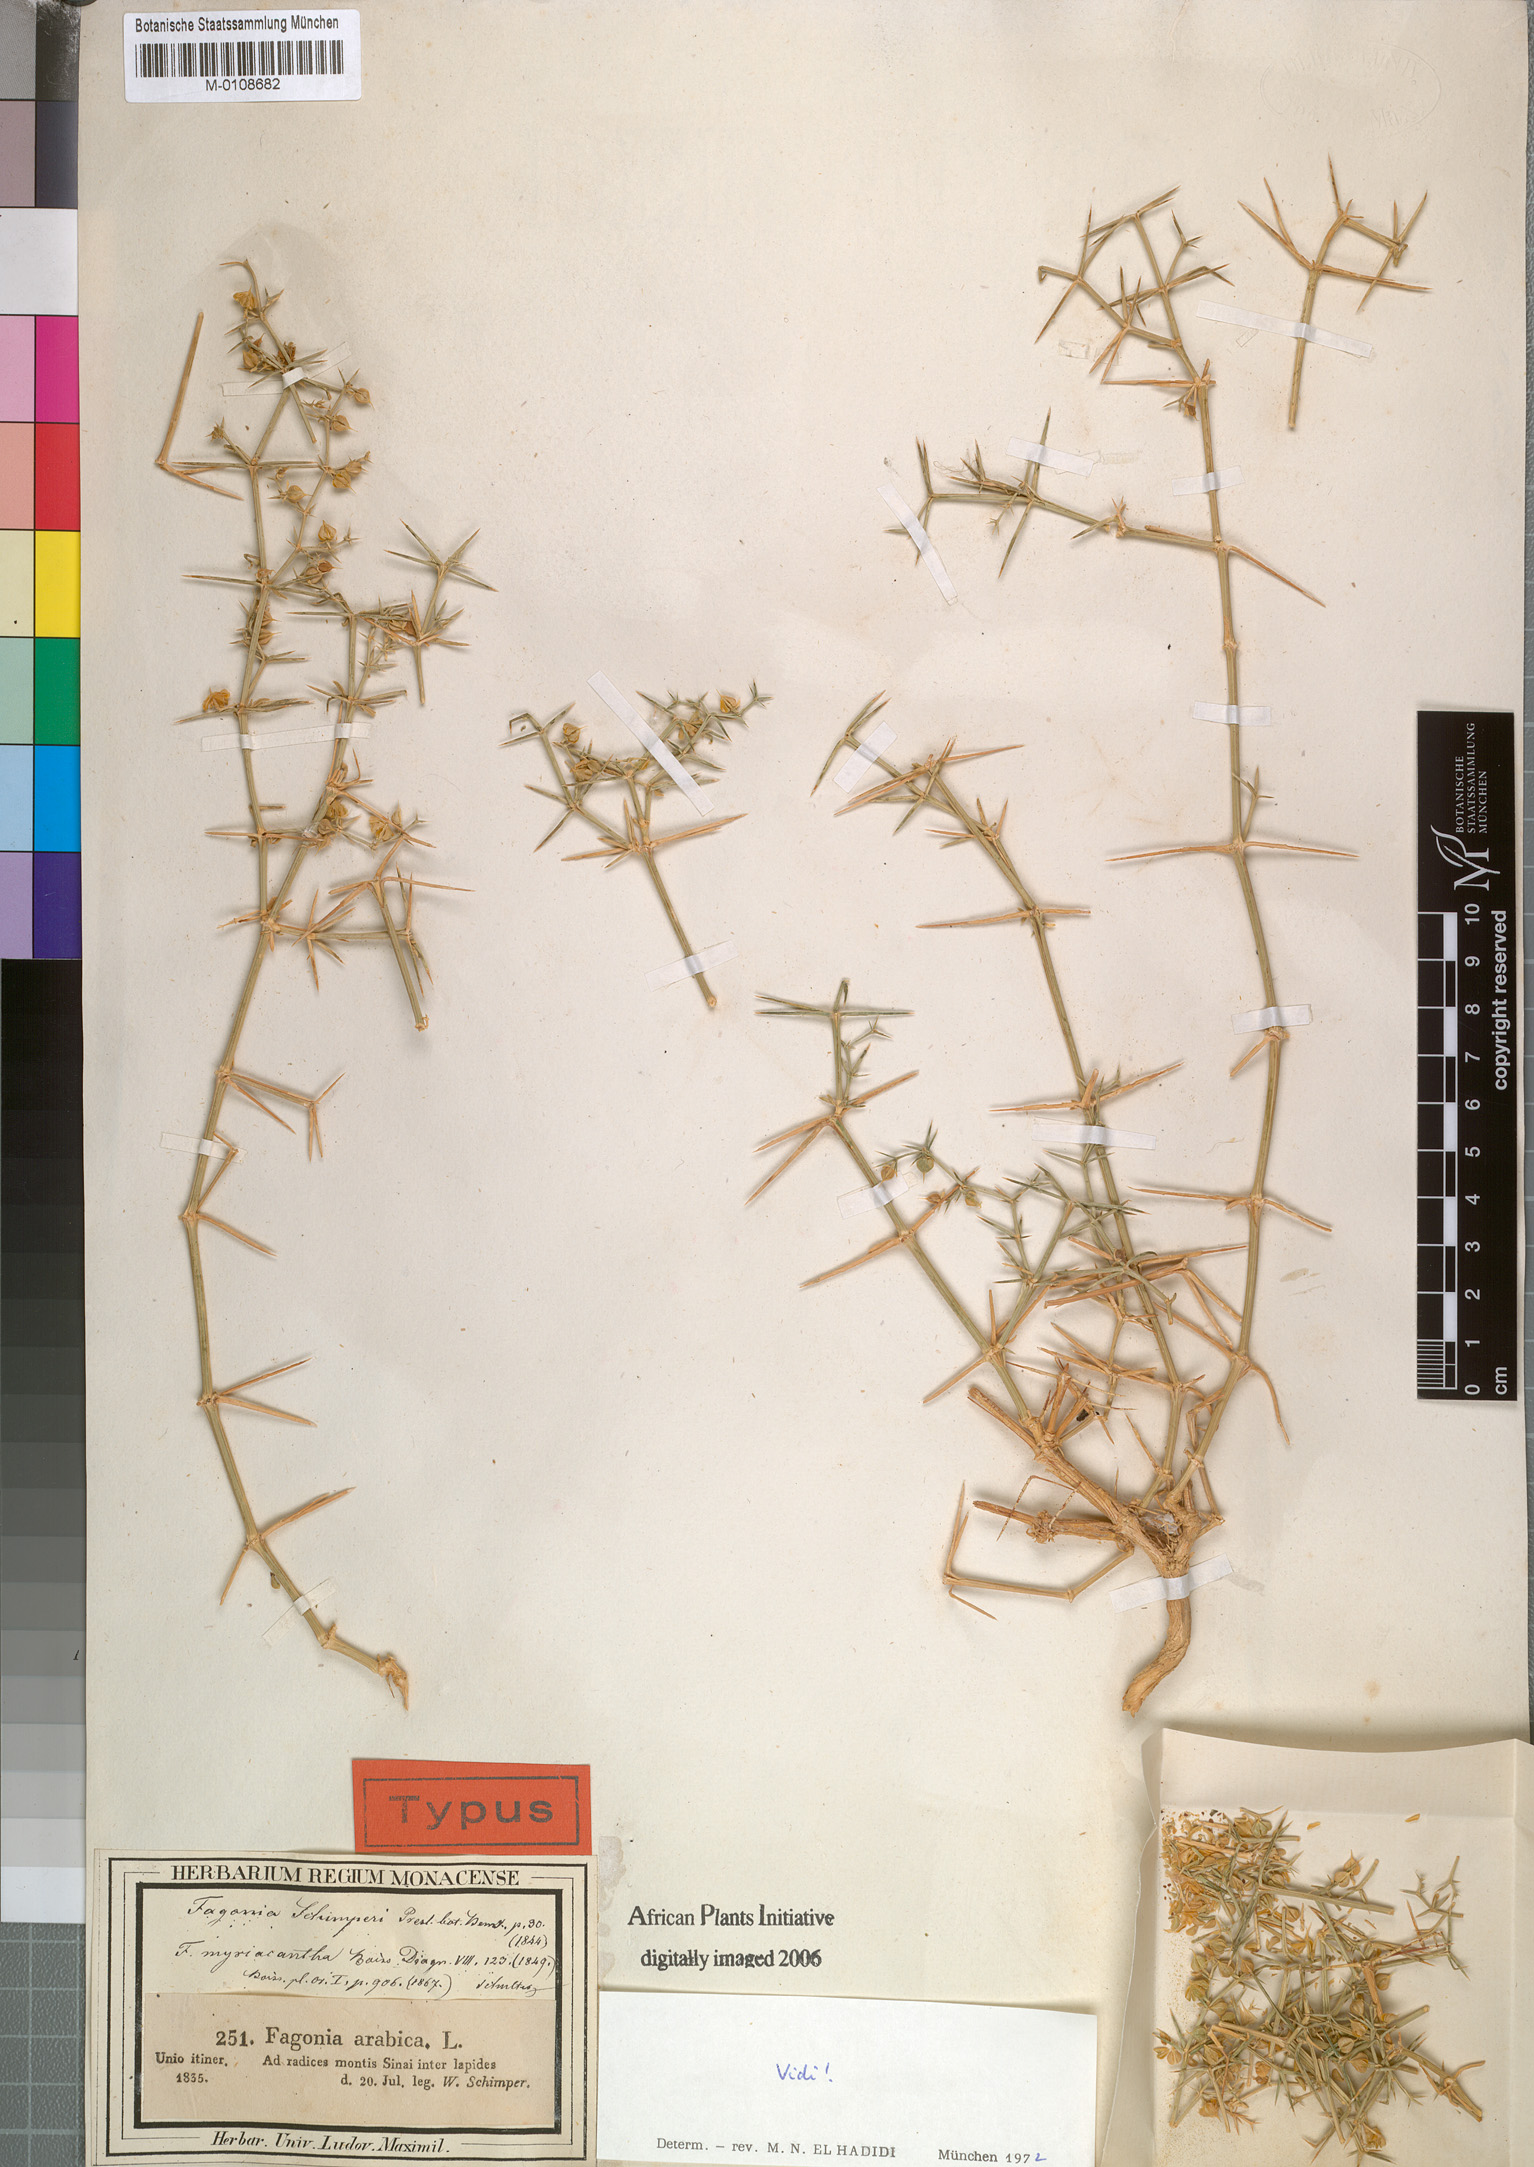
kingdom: Plantae
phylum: Tracheophyta
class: Magnoliopsida
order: Zygophyllales
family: Zygophyllaceae
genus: Fagonia
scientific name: Fagonia bruguieri
